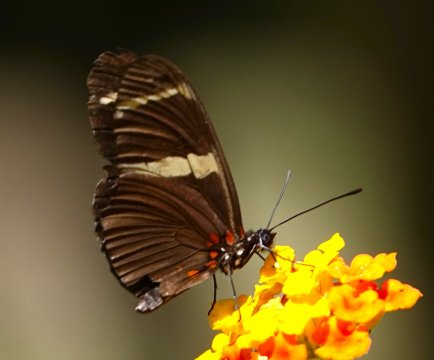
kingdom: Animalia
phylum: Arthropoda
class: Insecta
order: Lepidoptera
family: Nymphalidae
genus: Heliconius
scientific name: Heliconius sara
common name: Sara Longwing
